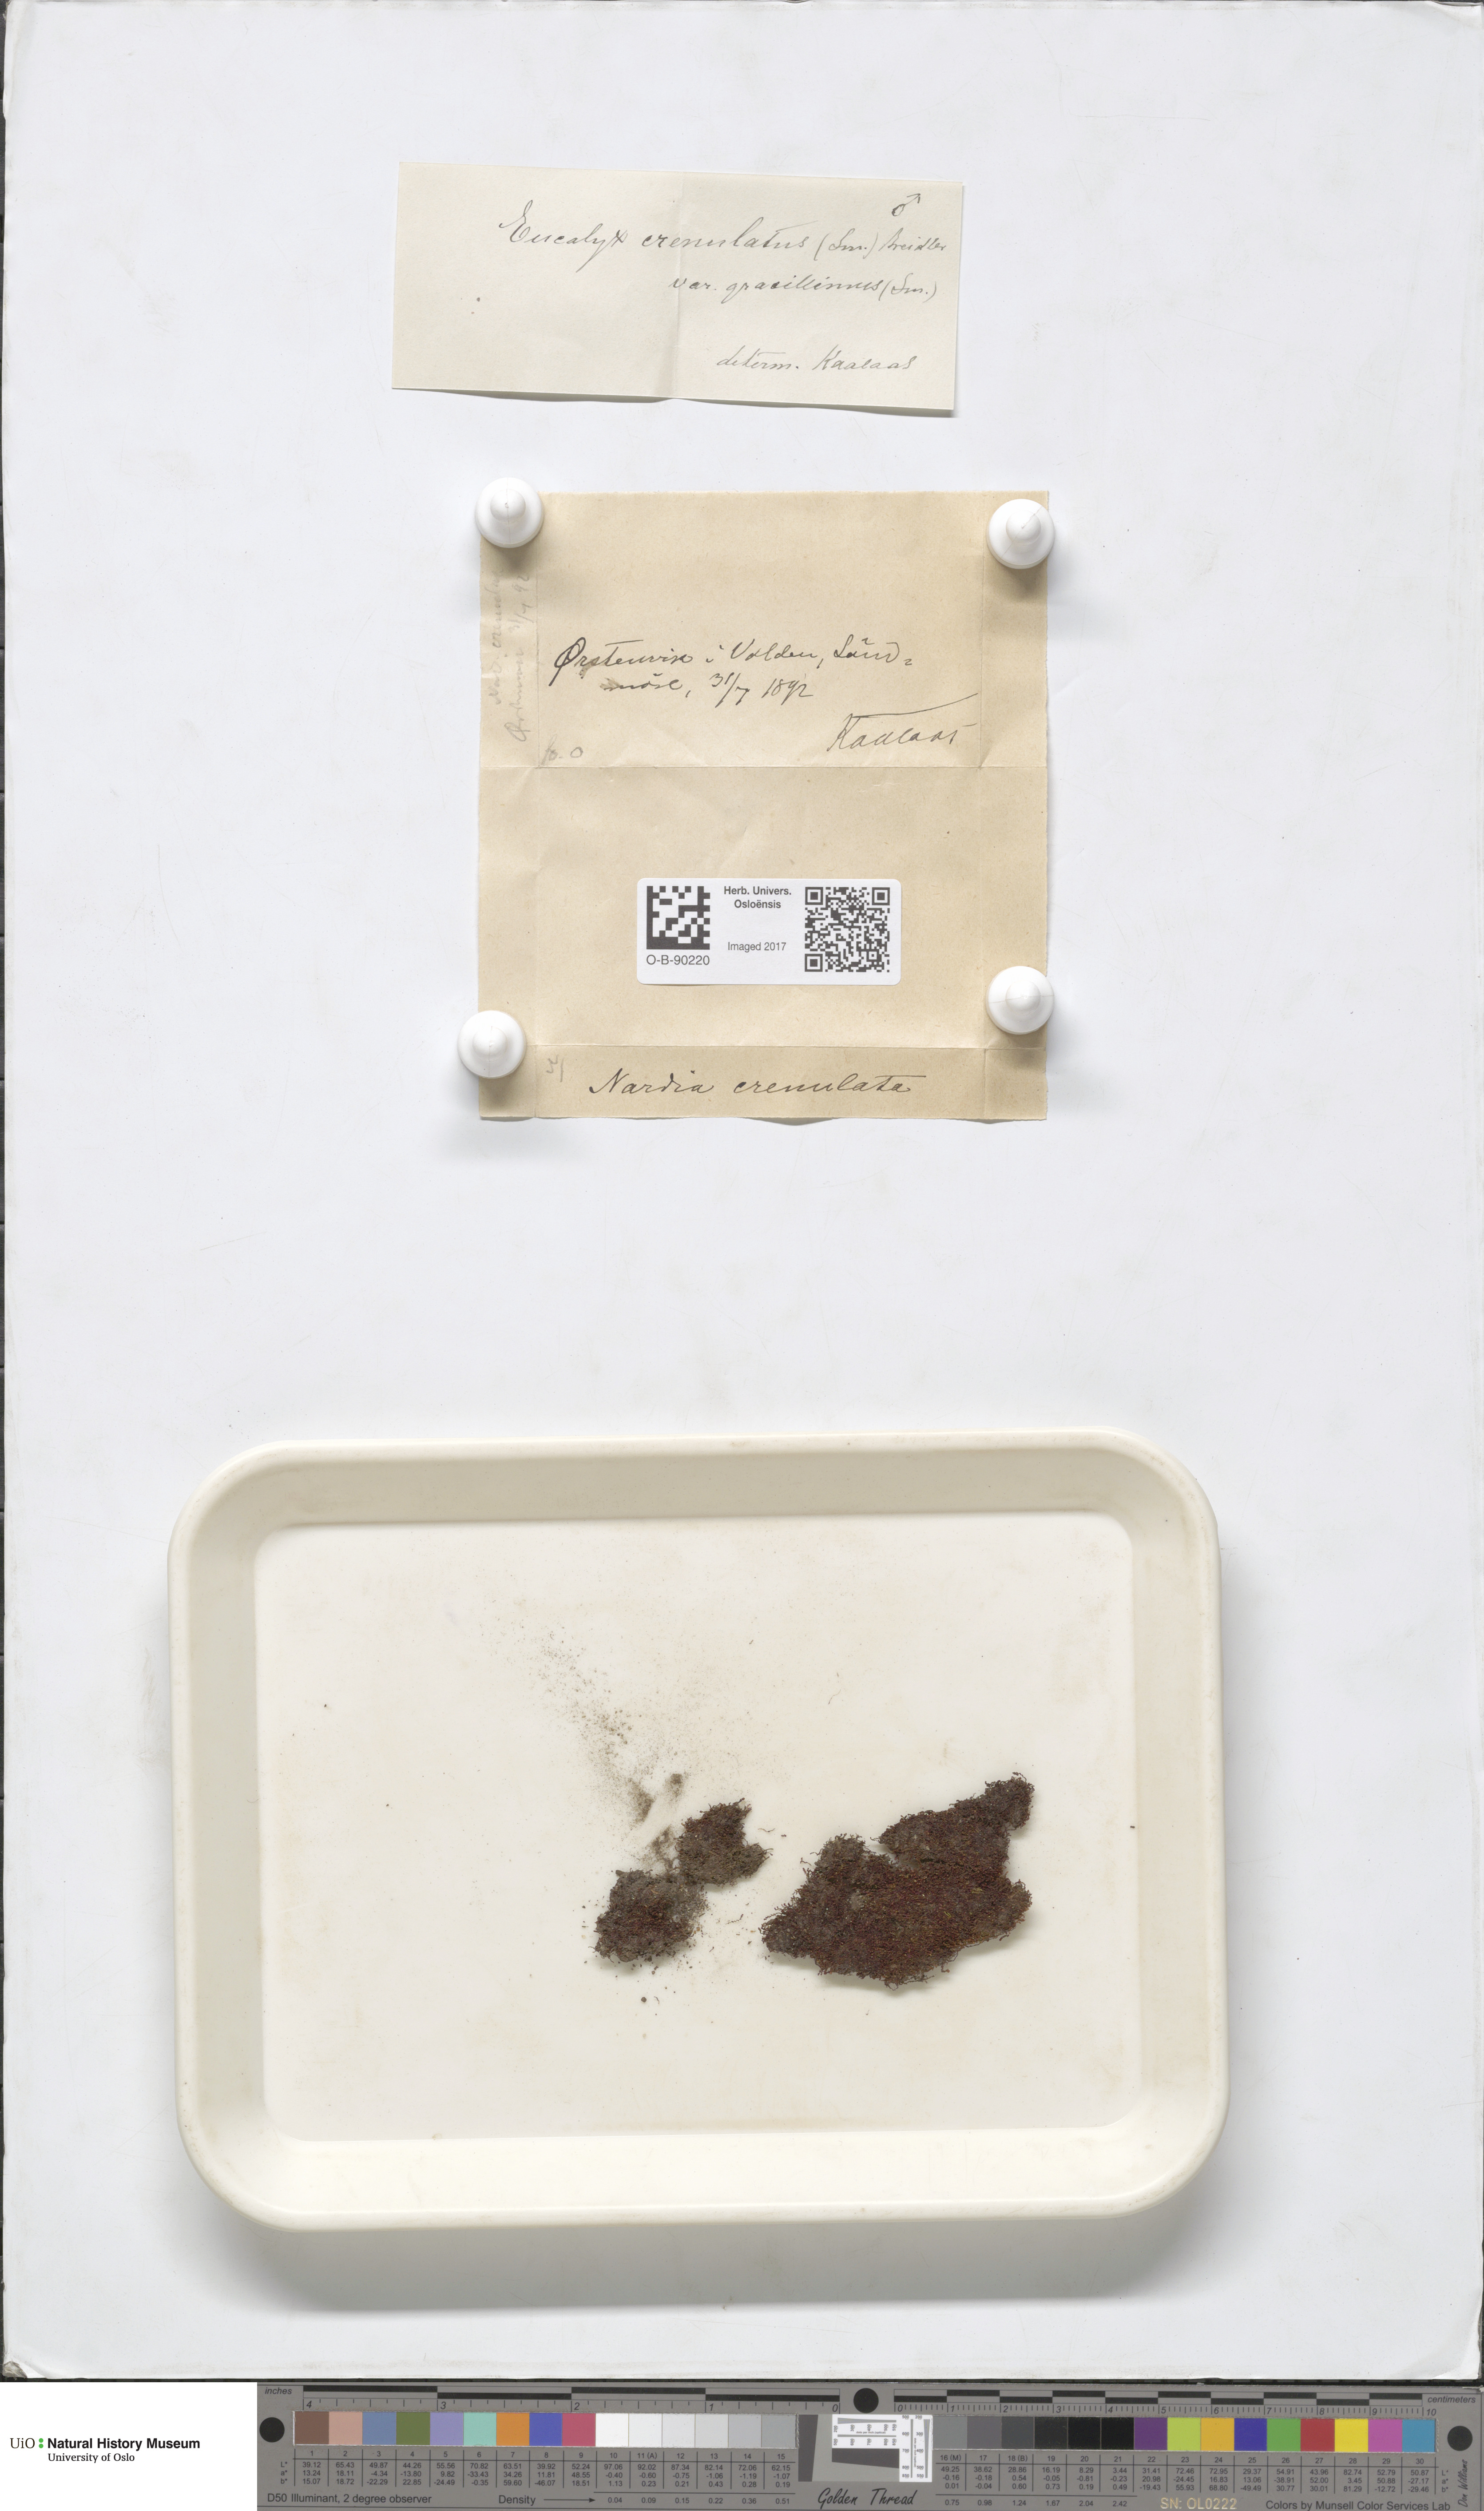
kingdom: Plantae
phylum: Marchantiophyta
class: Jungermanniopsida
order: Jungermanniales
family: Solenostomataceae
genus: Solenostoma
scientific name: Solenostoma gracillimum
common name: Crenulated flapwort
